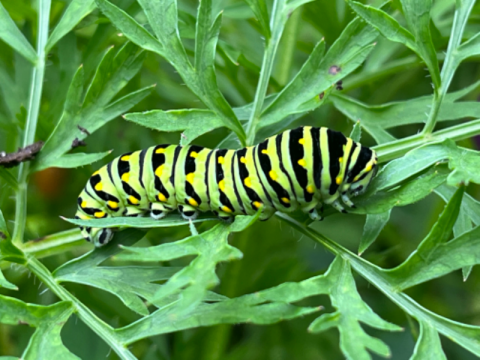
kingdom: Animalia
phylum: Arthropoda
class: Insecta
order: Lepidoptera
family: Papilionidae
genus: Papilio
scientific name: Papilio polyxenes
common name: Black Swallowtail
